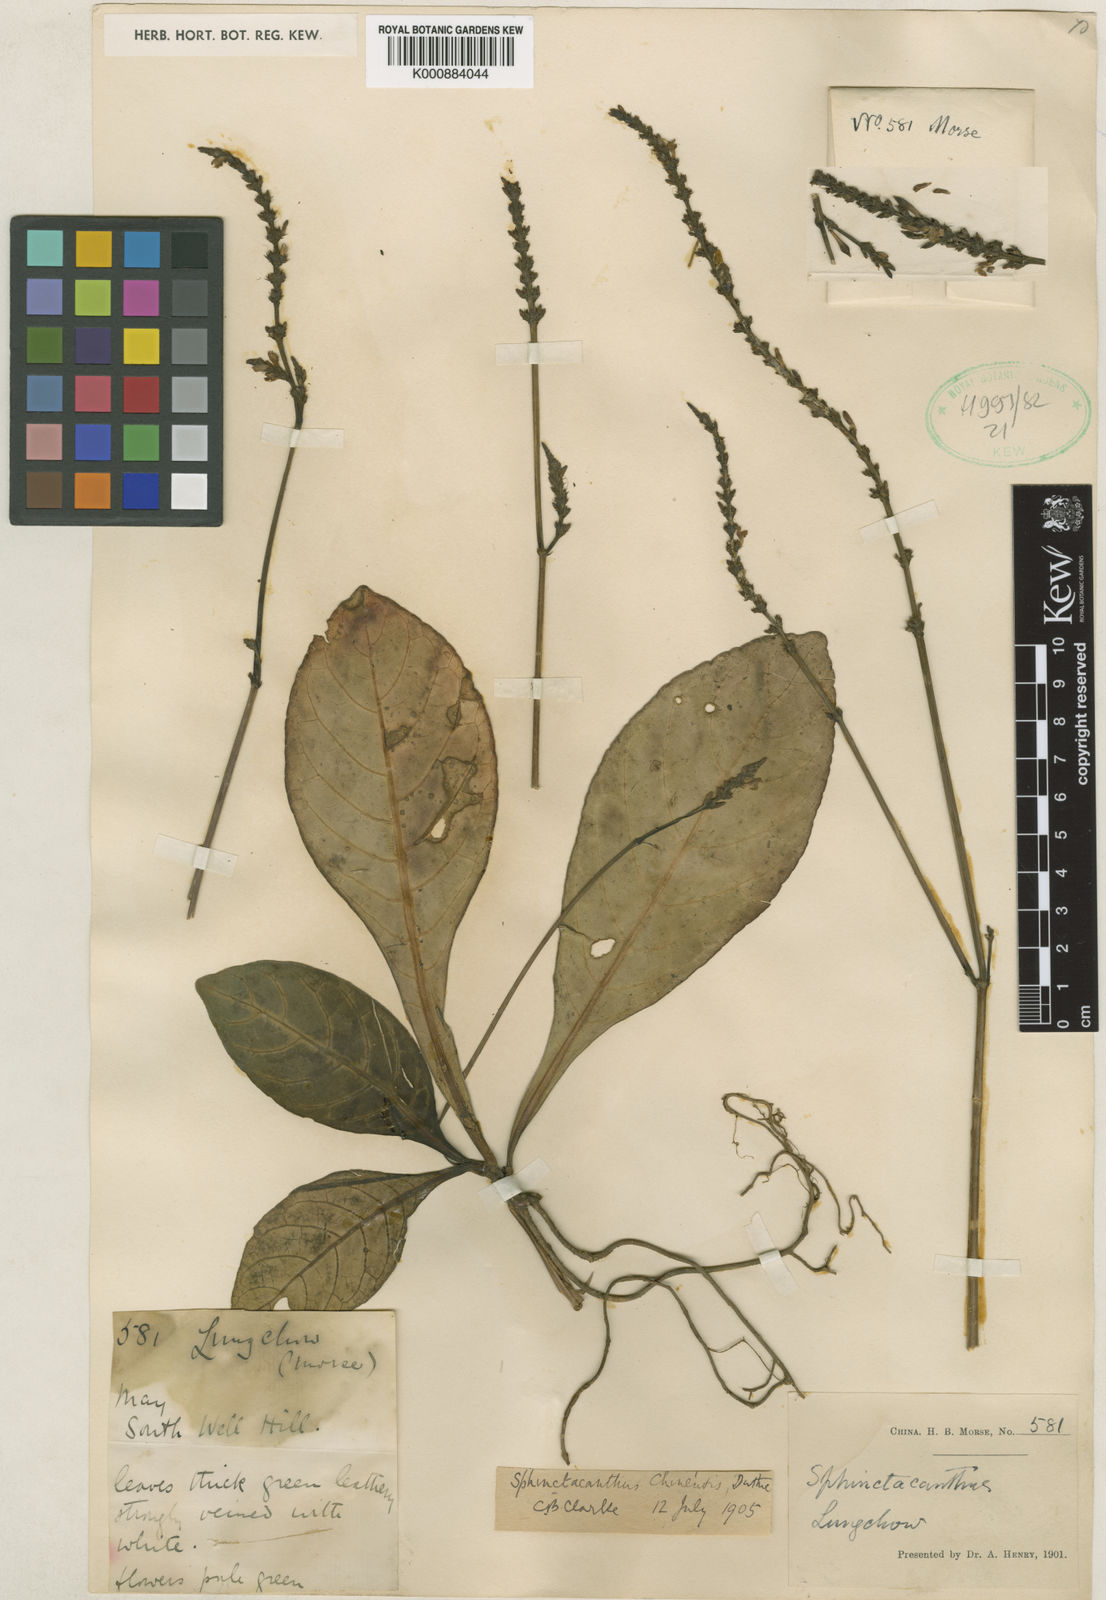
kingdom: Plantae
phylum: Tracheophyta
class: Magnoliopsida
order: Lamiales
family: Acanthaceae
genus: Justicia
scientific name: Justicia
